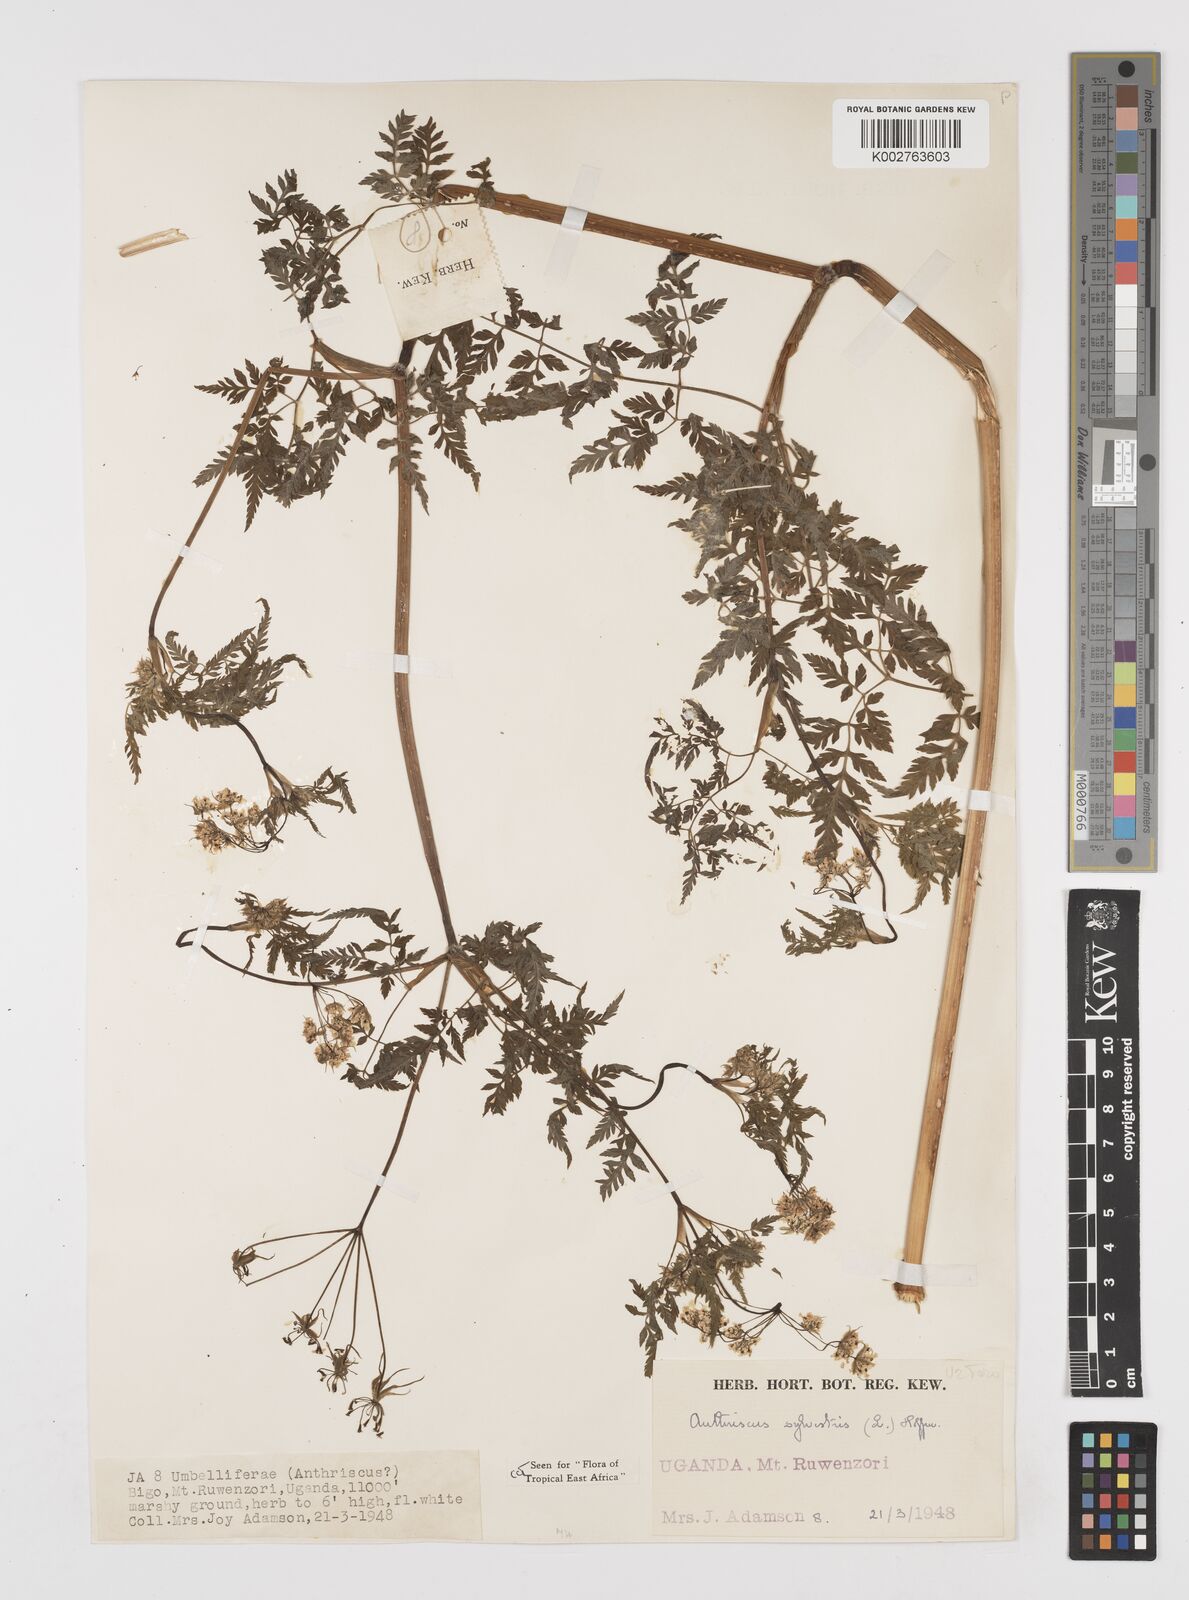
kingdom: Plantae
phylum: Tracheophyta
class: Magnoliopsida
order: Apiales
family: Apiaceae
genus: Anthriscus
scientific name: Anthriscus sylvestris
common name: Cow parsley
